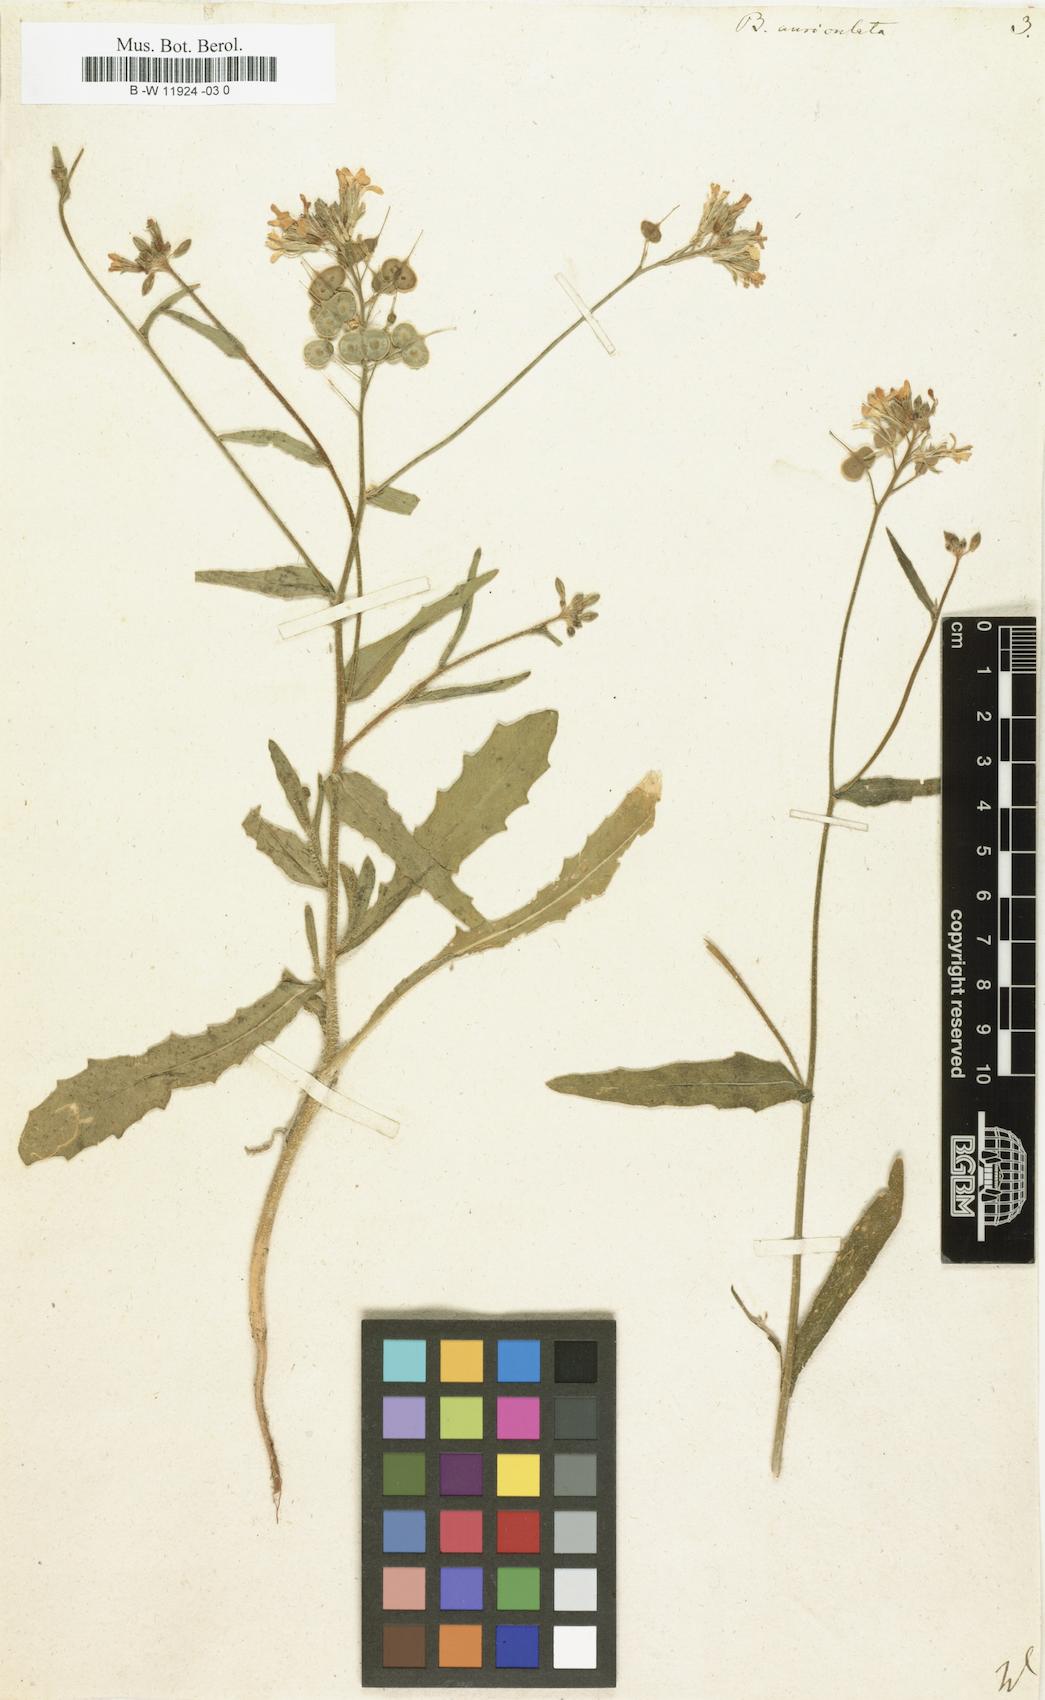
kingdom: Plantae
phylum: Tracheophyta
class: Magnoliopsida
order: Brassicales
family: Brassicaceae
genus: Biscutella
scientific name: Biscutella auriculata
